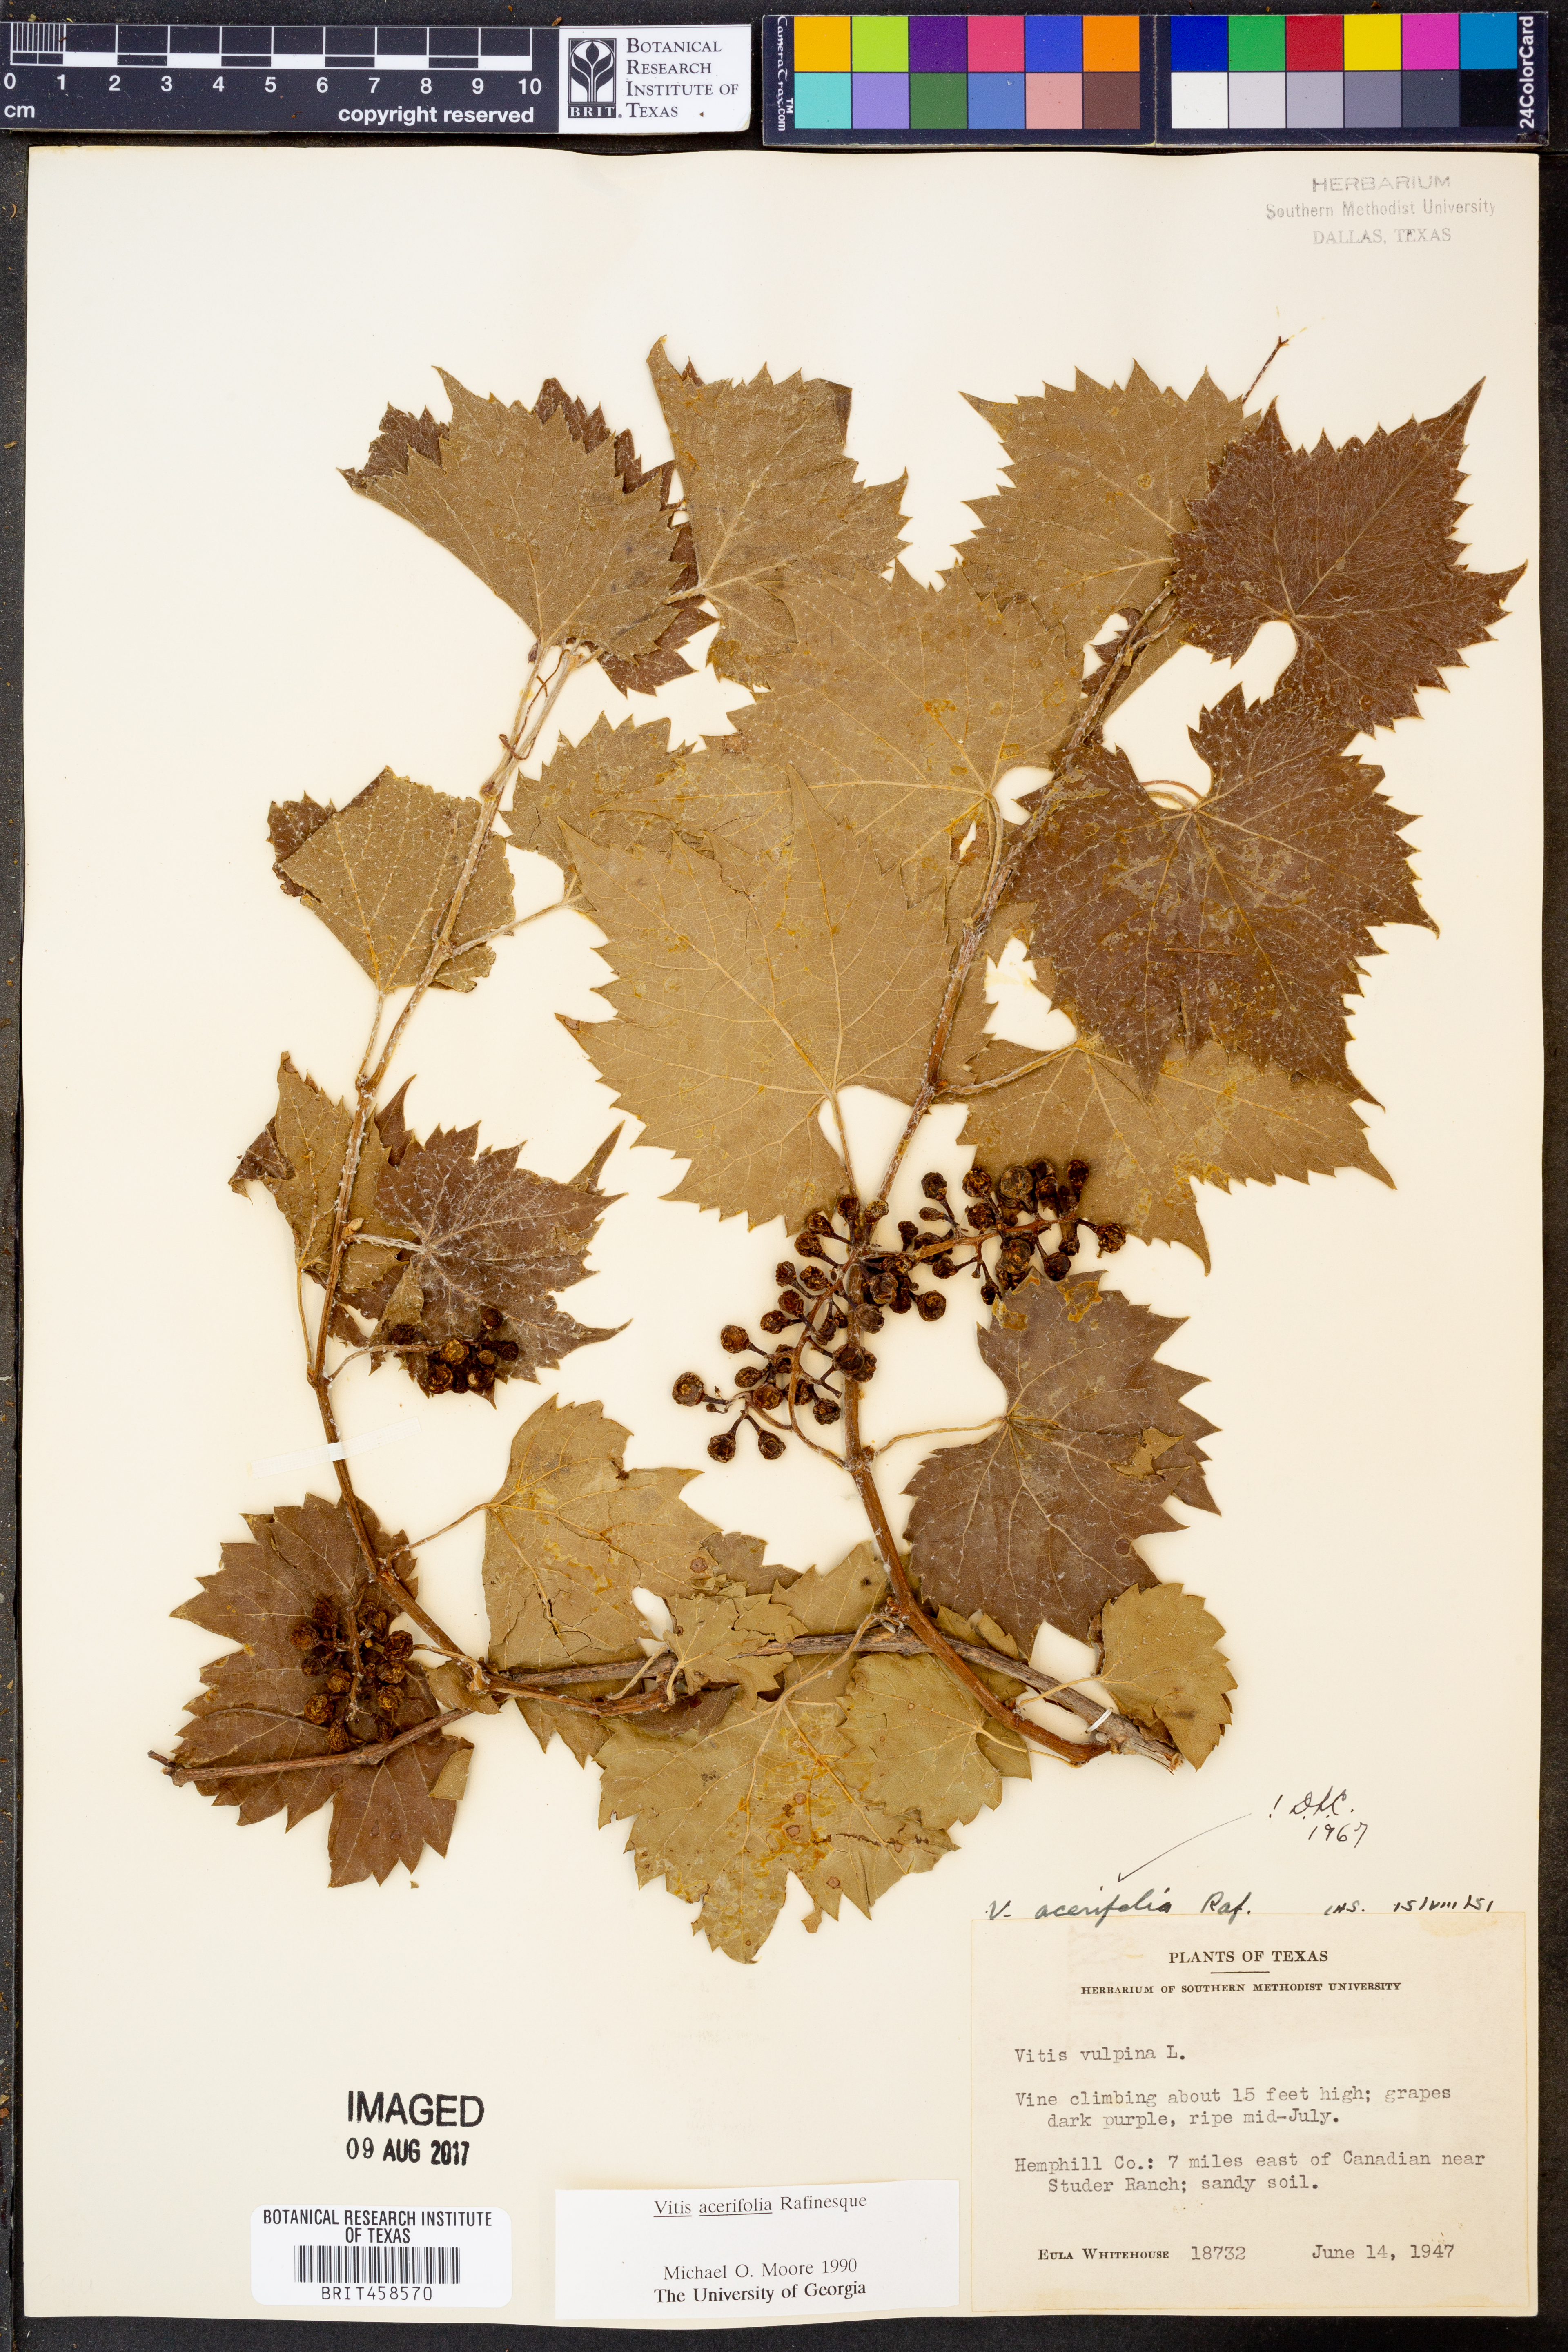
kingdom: Plantae
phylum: Tracheophyta
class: Magnoliopsida
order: Vitales
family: Vitaceae
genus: Vitis
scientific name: Vitis acerifolia
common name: Bush grape
